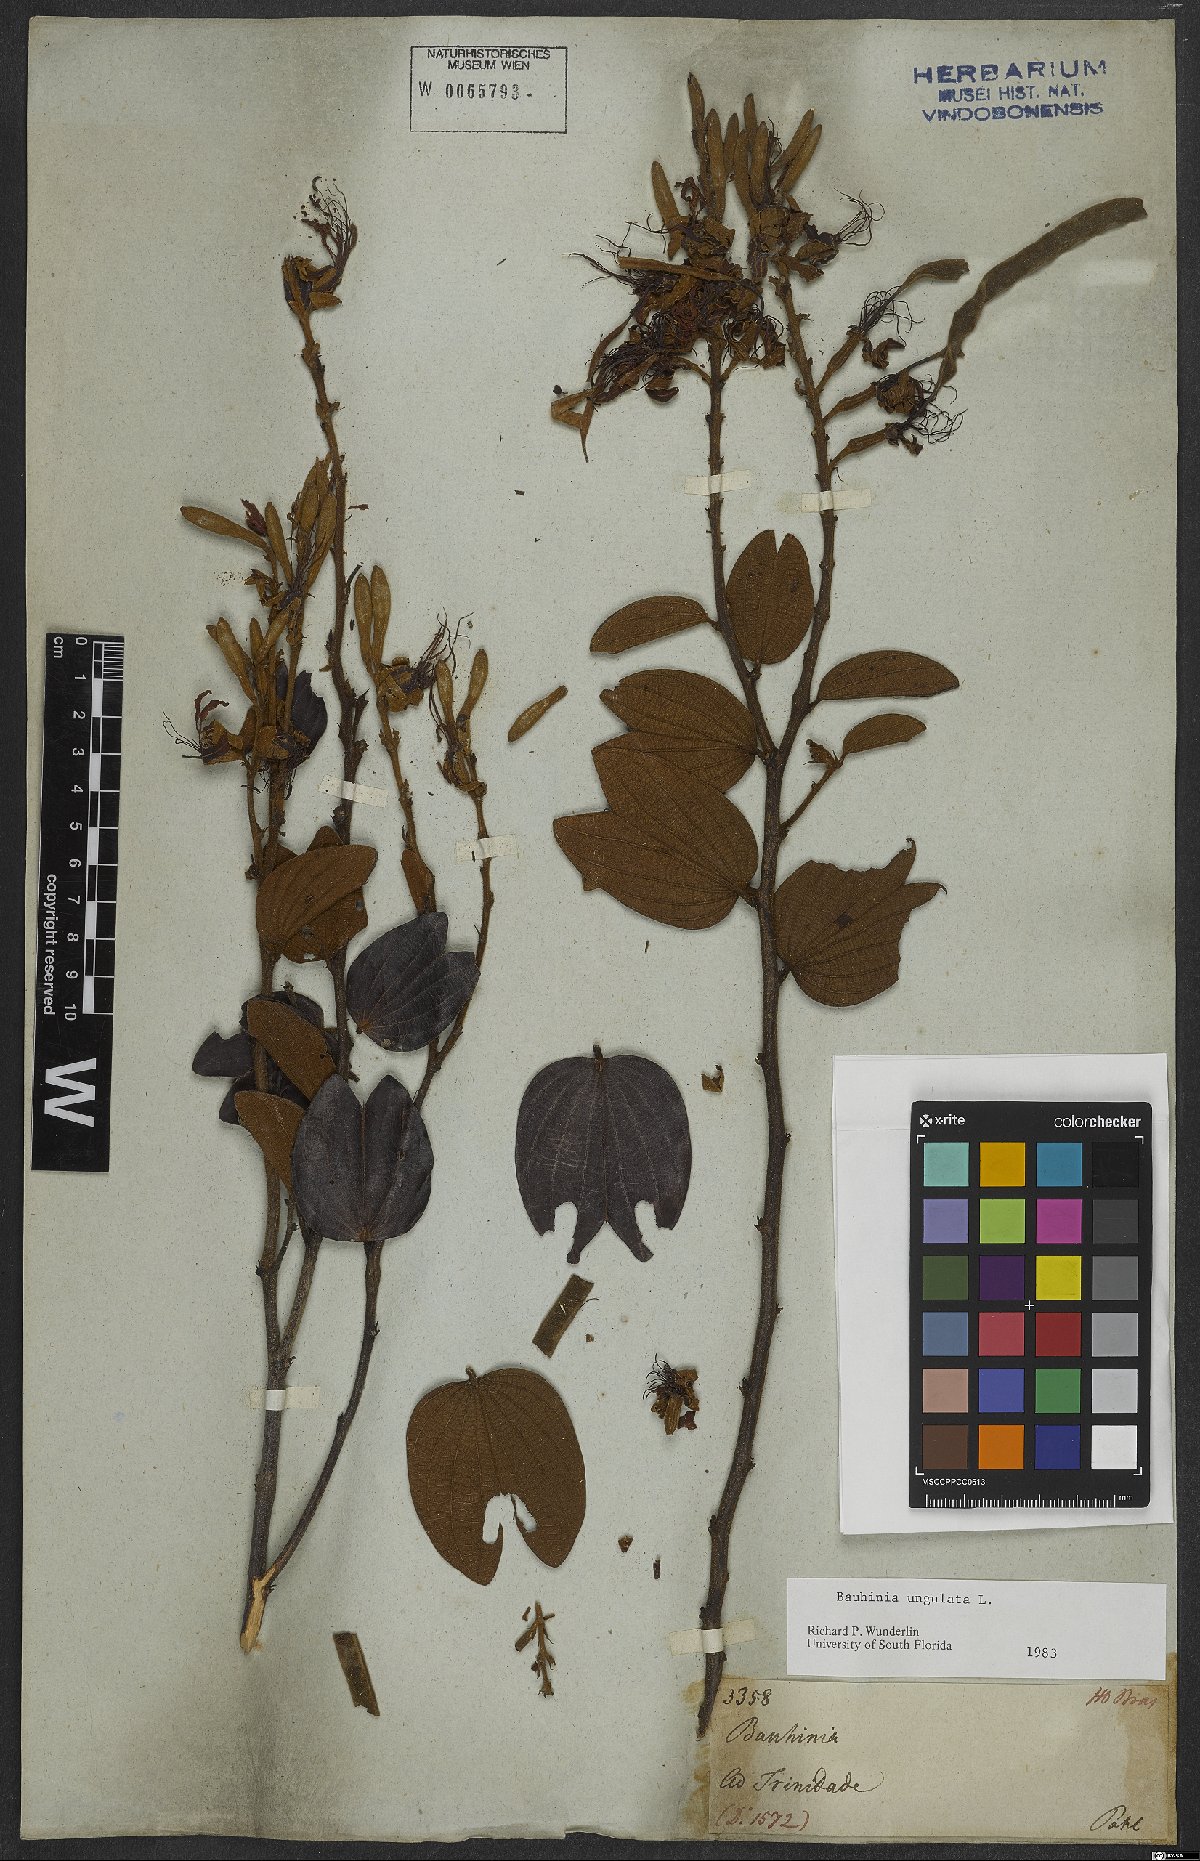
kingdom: Plantae
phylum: Tracheophyta
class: Magnoliopsida
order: Fabales
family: Fabaceae
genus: Bauhinia
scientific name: Bauhinia ungulata
